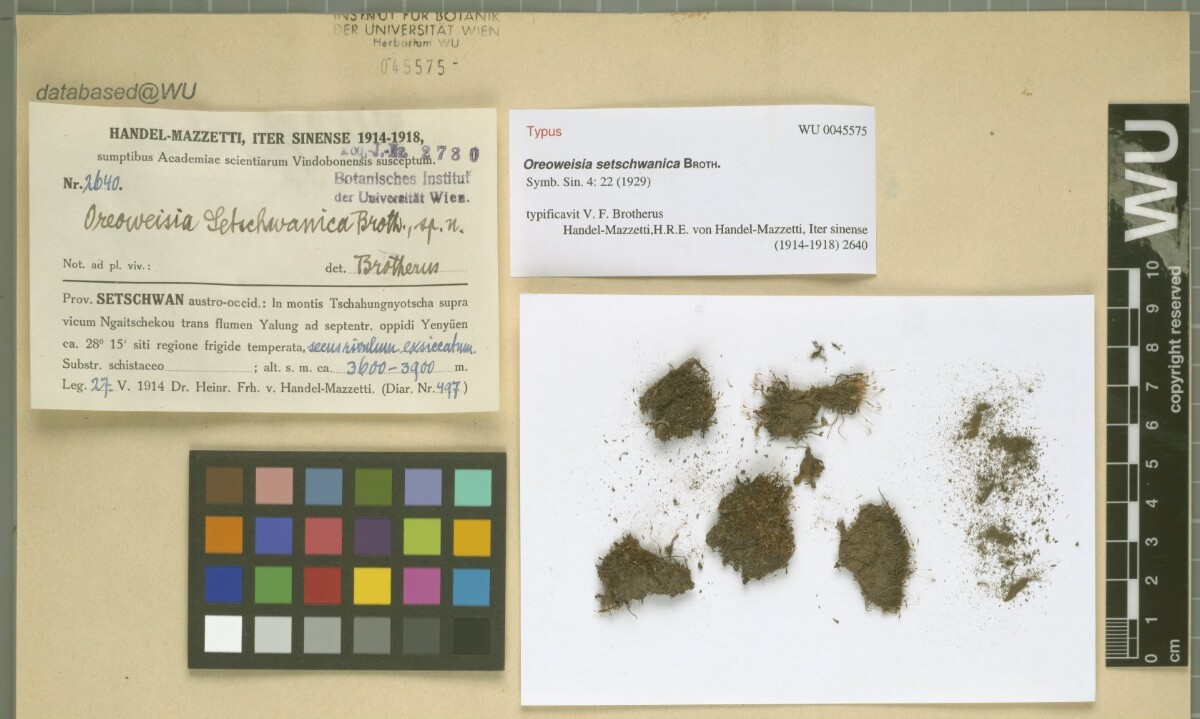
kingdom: Plantae
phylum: Bryophyta
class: Bryopsida
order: Dicranales
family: Rhabdoweisiaceae
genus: Cynodontium
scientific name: Cynodontium setschwanicum
